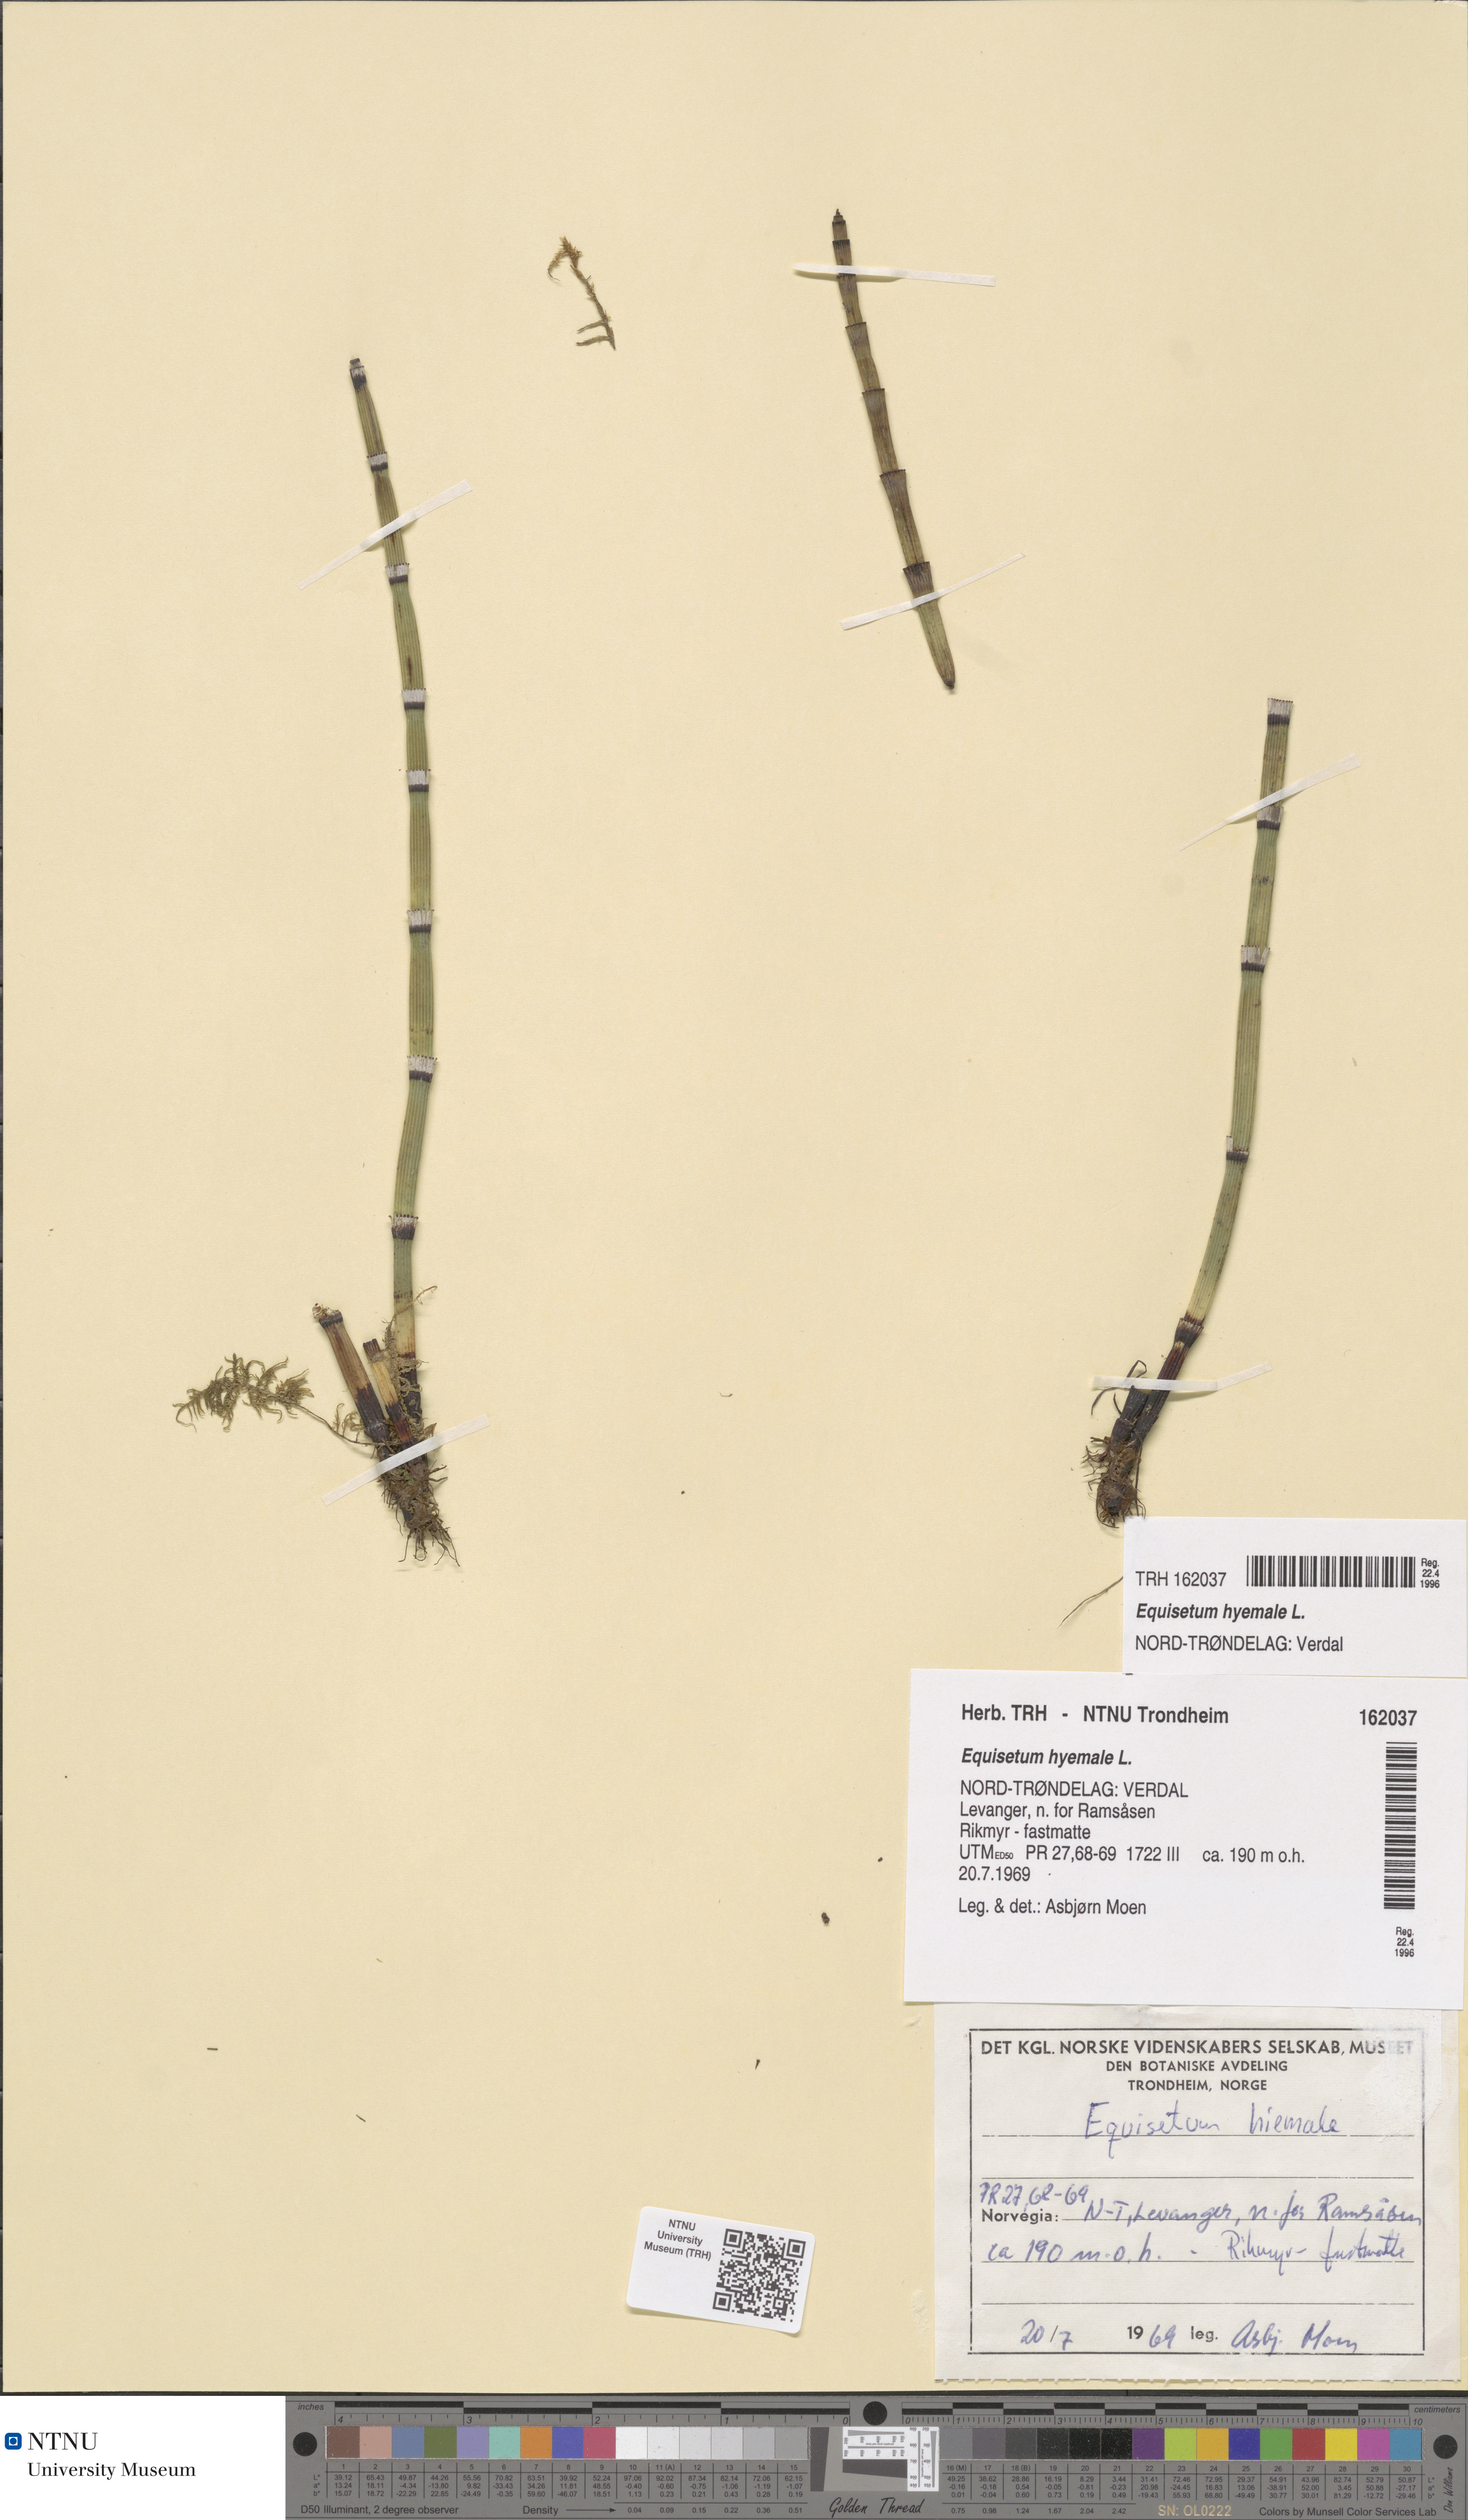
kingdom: Plantae
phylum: Tracheophyta
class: Polypodiopsida
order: Equisetales
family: Equisetaceae
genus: Equisetum
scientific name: Equisetum hyemale
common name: Rough horsetail
